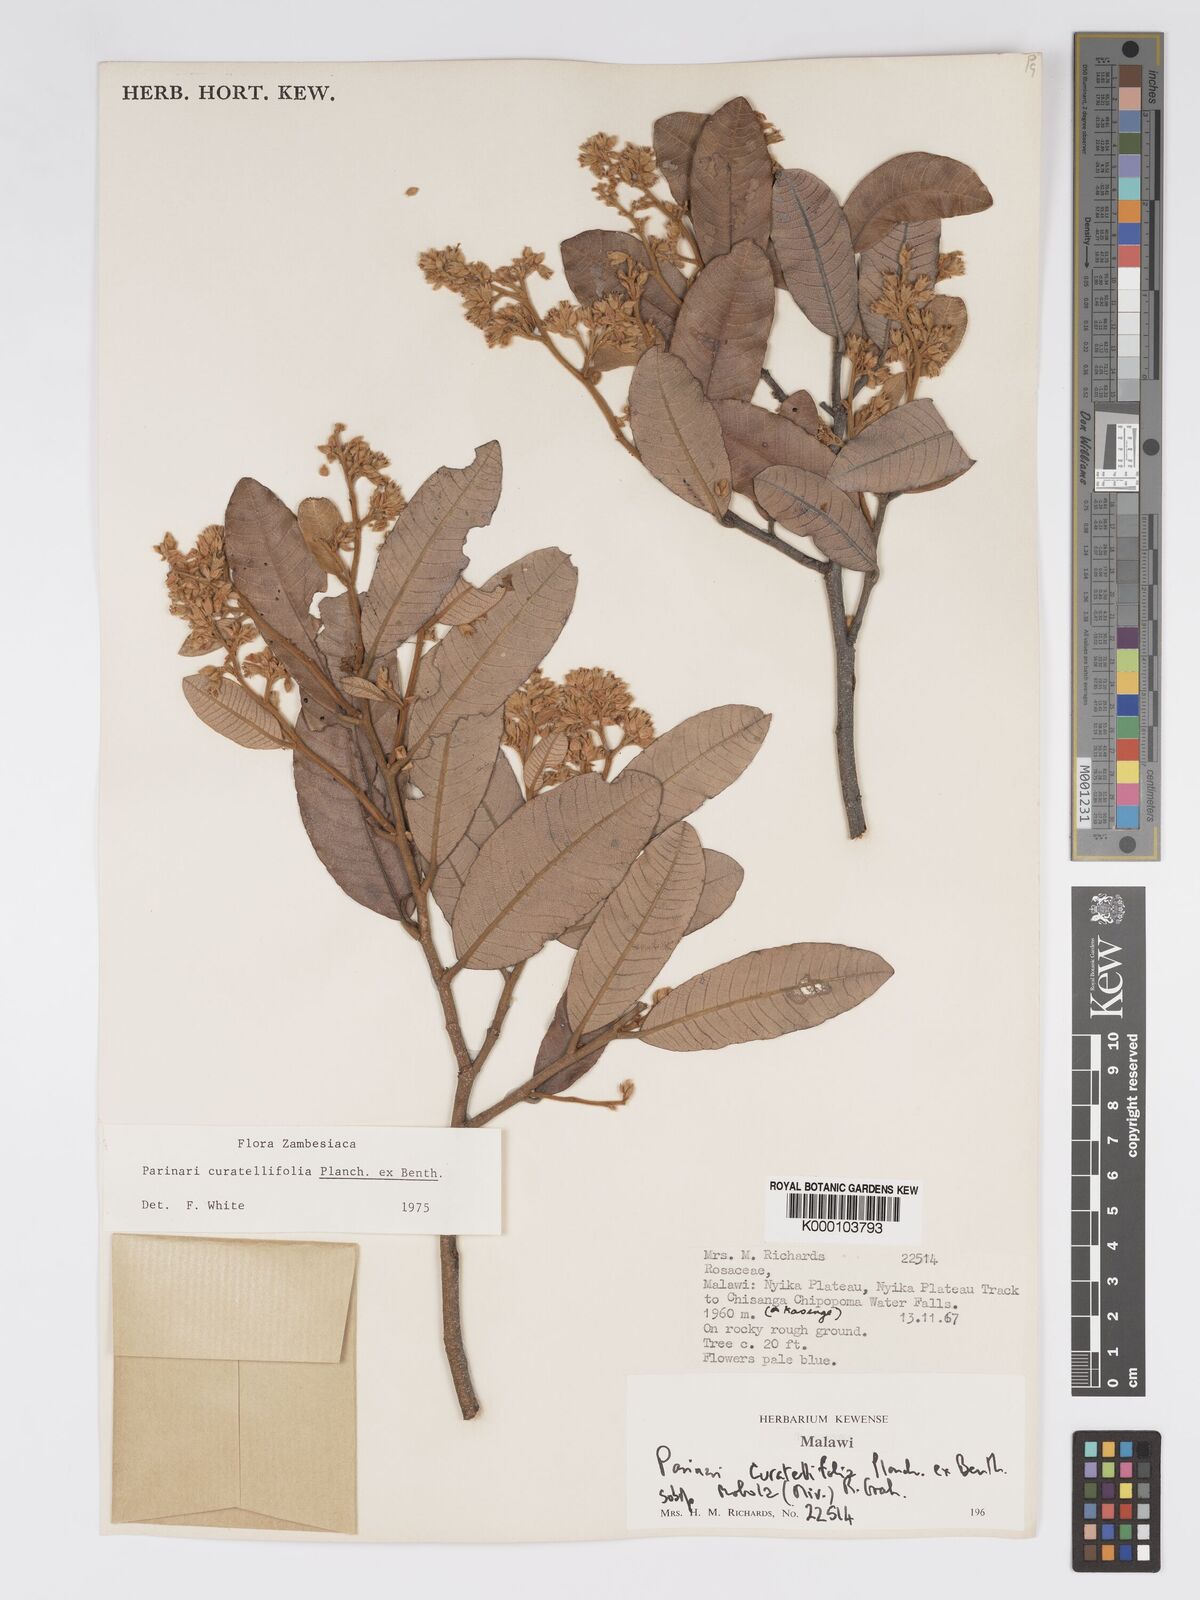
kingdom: Plantae
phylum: Tracheophyta
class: Magnoliopsida
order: Malpighiales
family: Chrysobalanaceae
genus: Parinari
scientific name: Parinari curatellifolia
